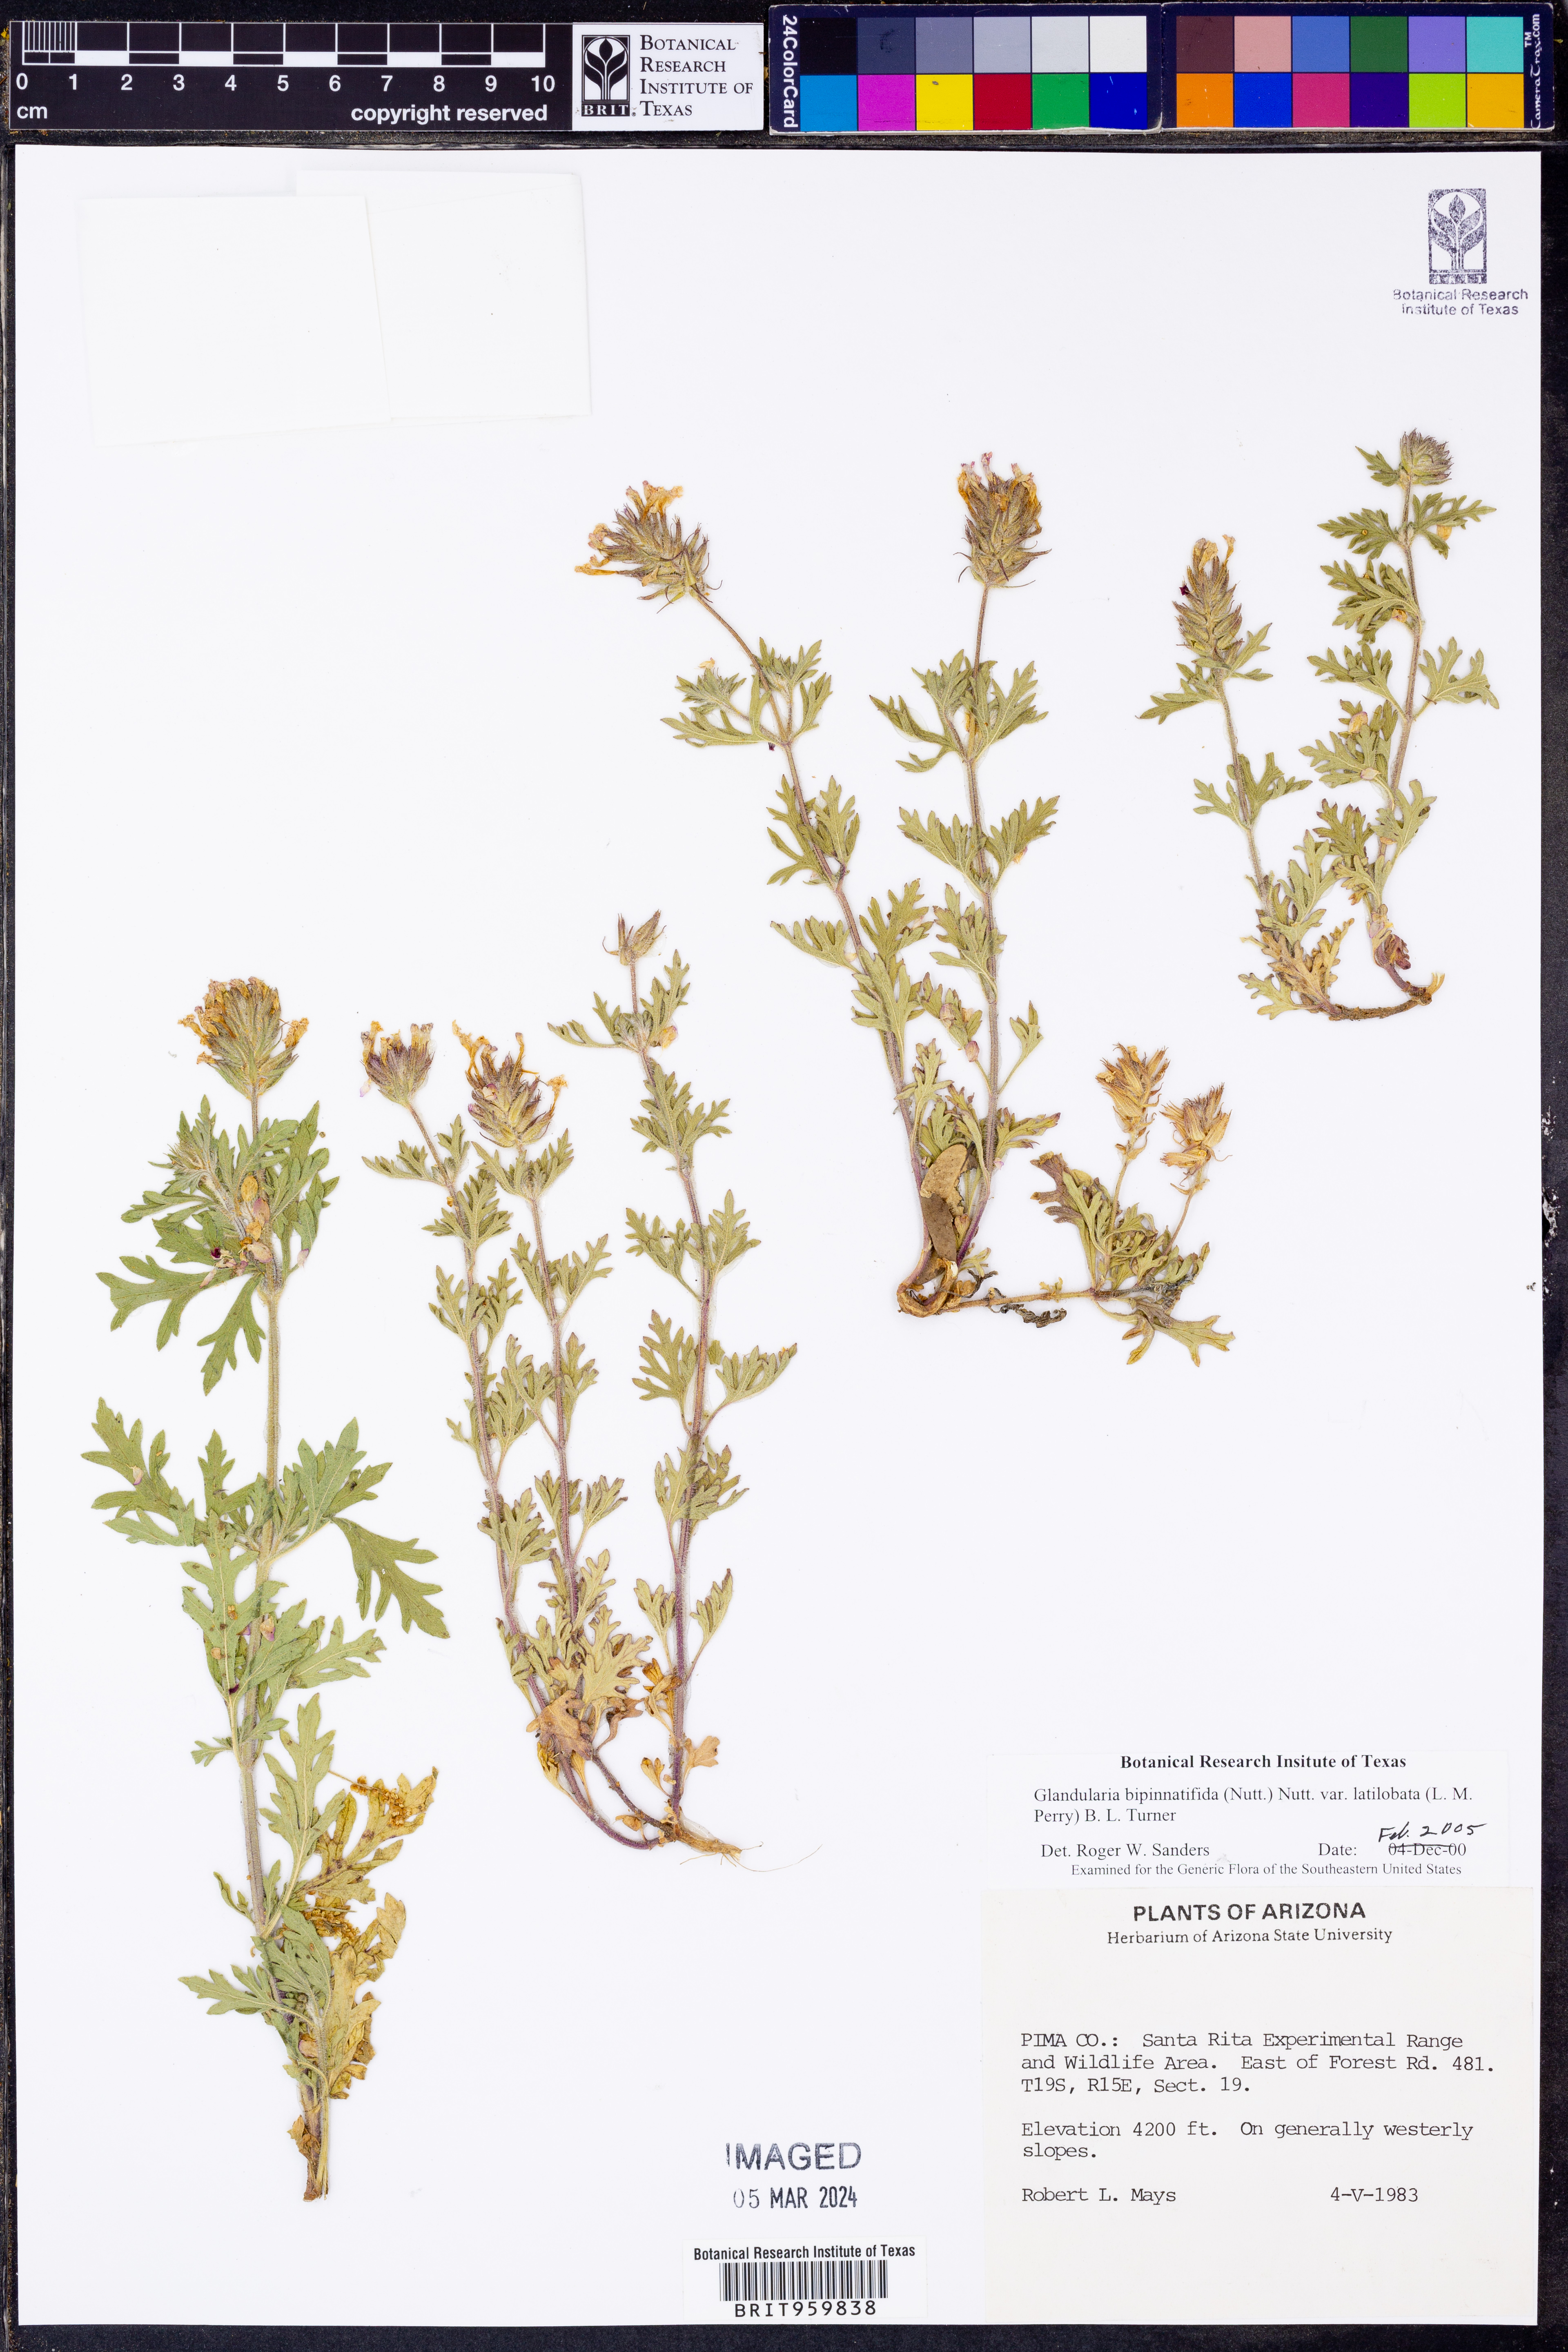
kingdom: Plantae
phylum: Tracheophyta
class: Magnoliopsida
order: Lamiales
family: Verbenaceae
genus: Verbena
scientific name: Verbena bipinnatifida
